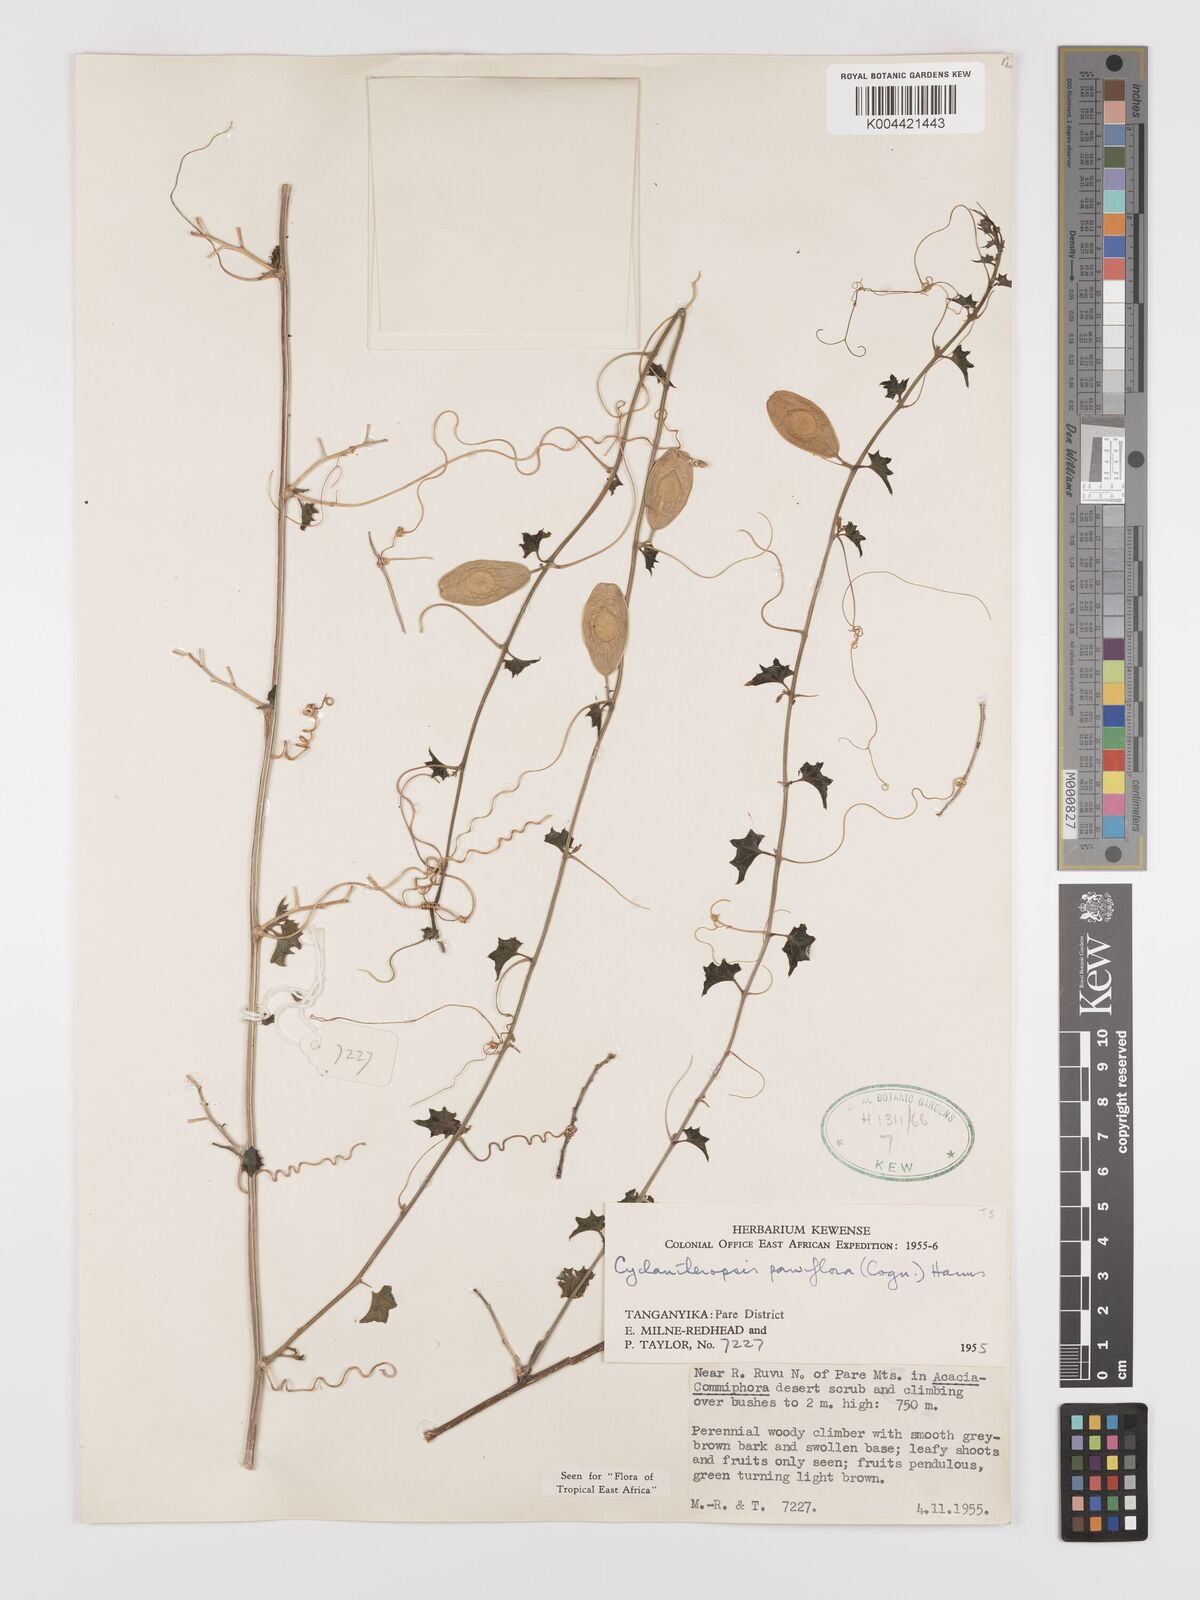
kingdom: Plantae
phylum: Tracheophyta
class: Magnoliopsida
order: Cucurbitales
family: Cucurbitaceae
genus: Cyclantheropsis
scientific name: Cyclantheropsis parviflora
